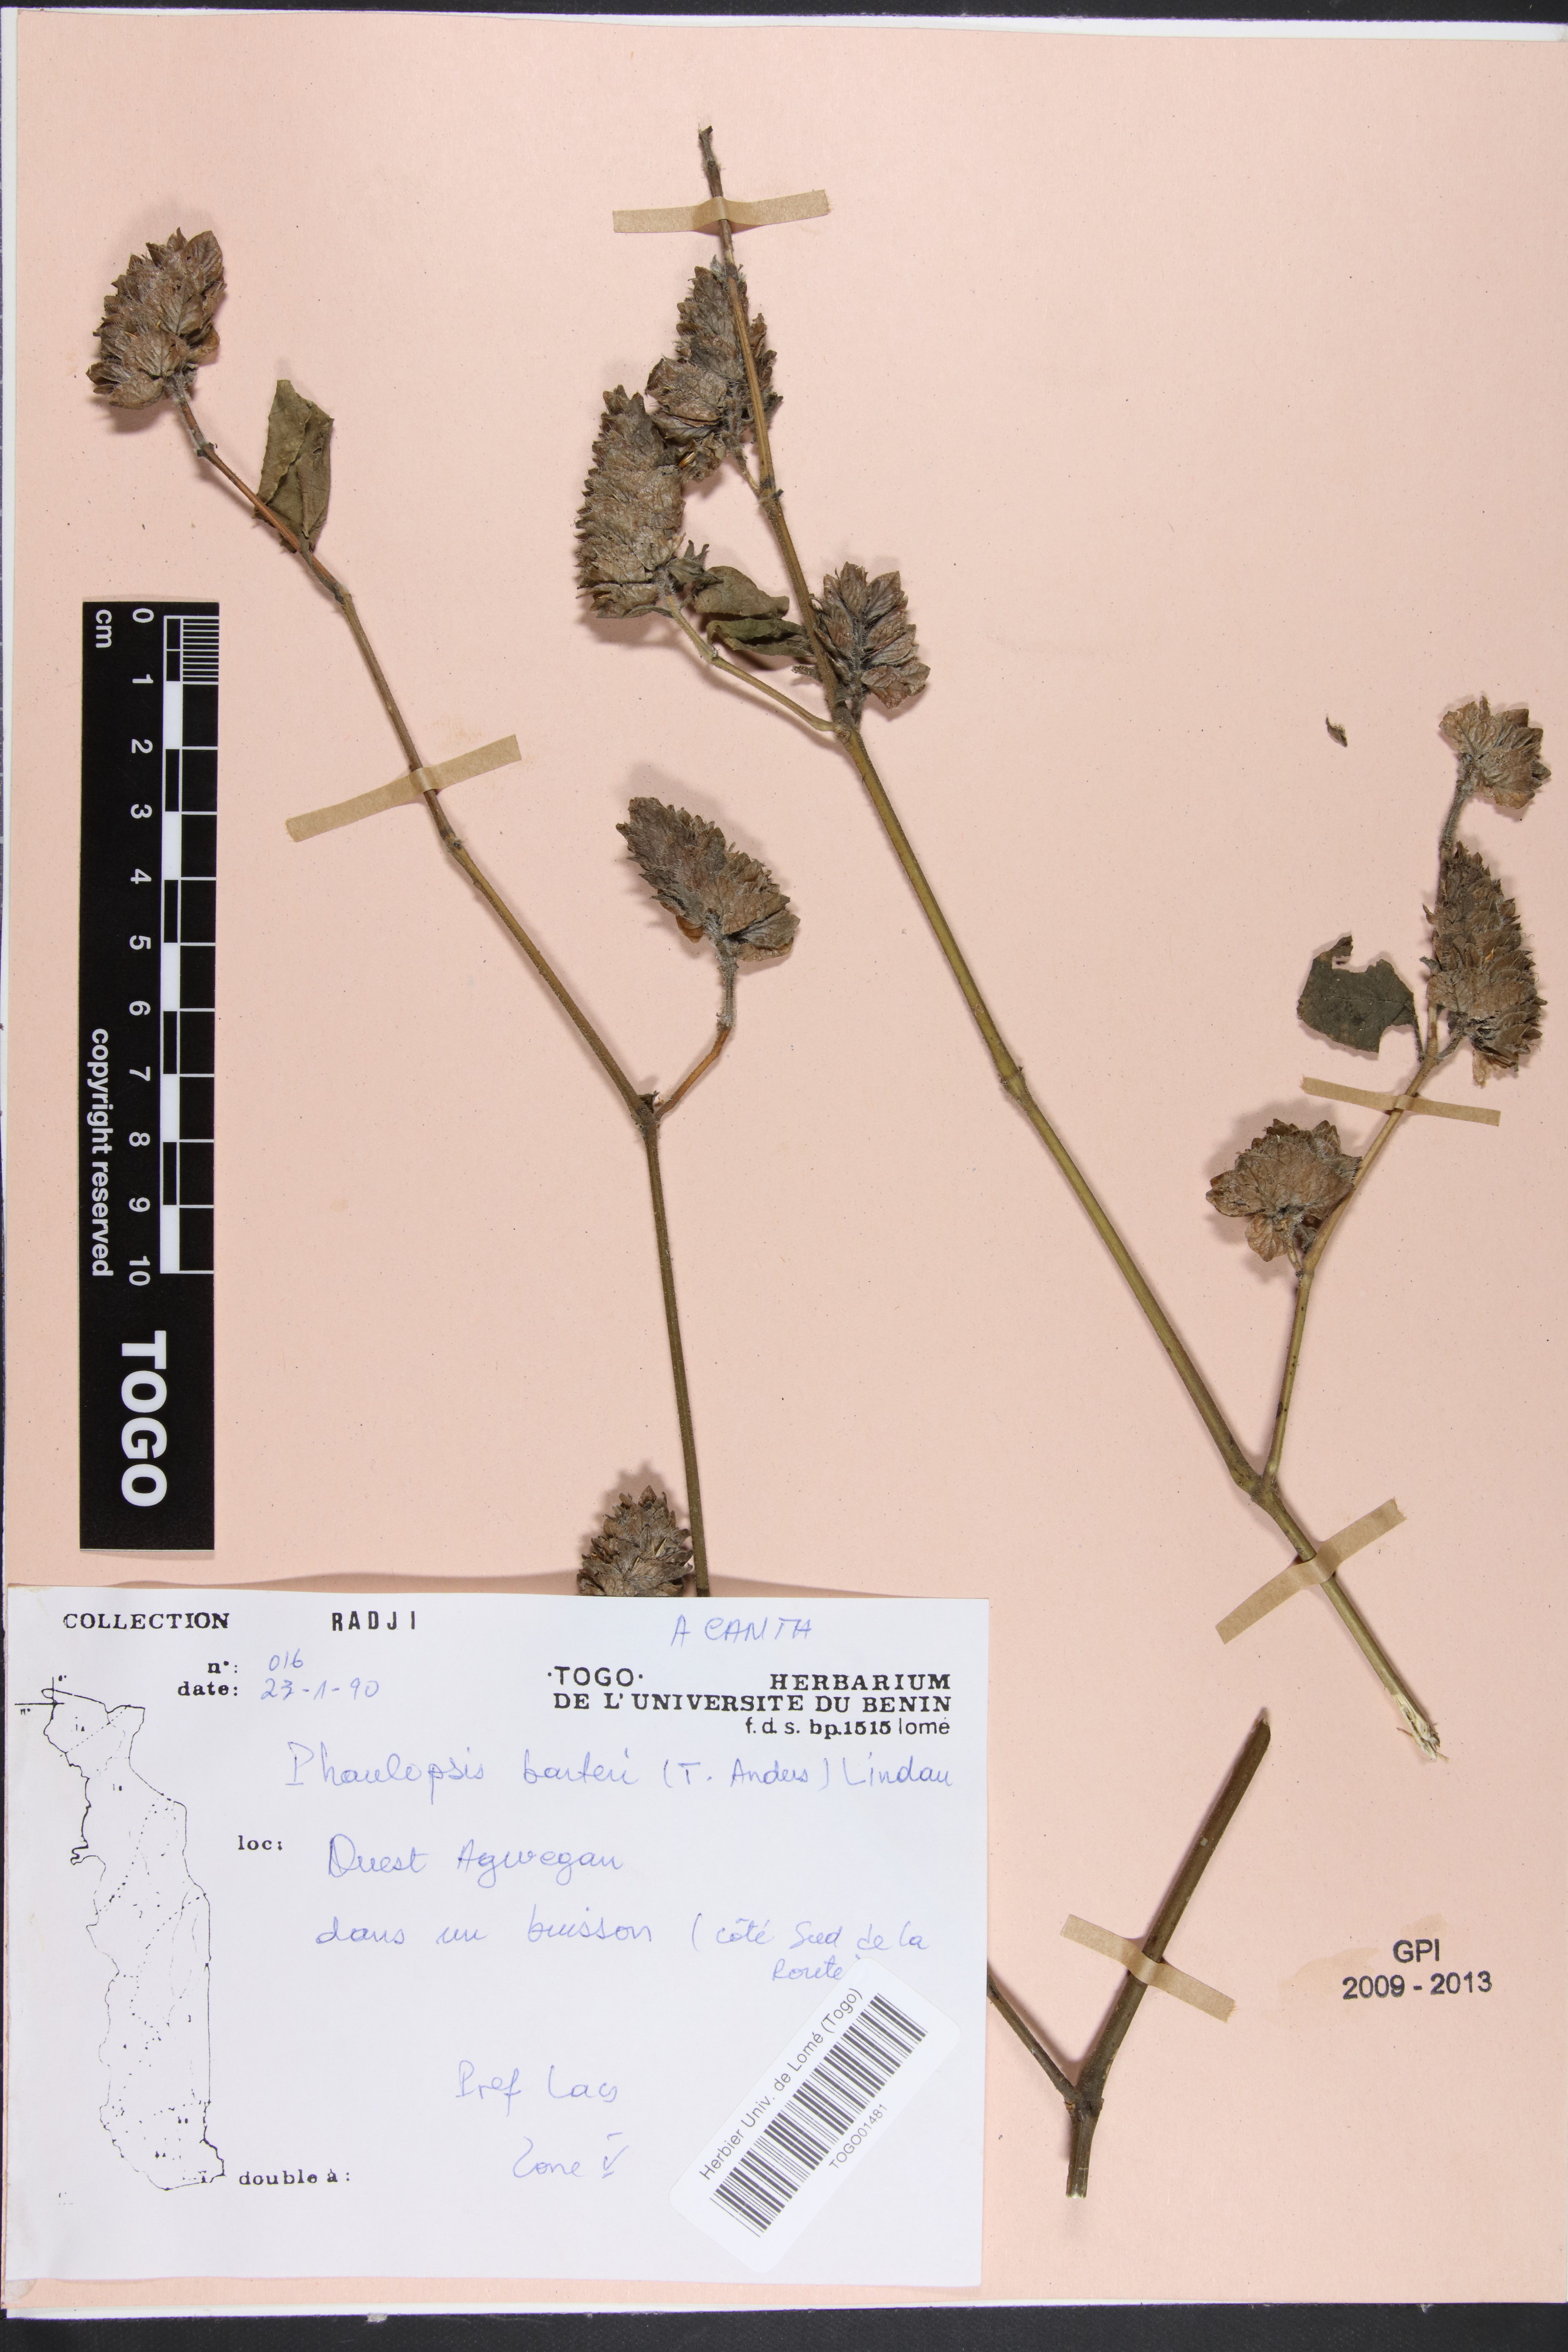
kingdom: Plantae
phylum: Tracheophyta
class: Magnoliopsida
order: Lamiales
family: Acanthaceae
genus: Phaulopsis
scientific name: Phaulopsis barteri
